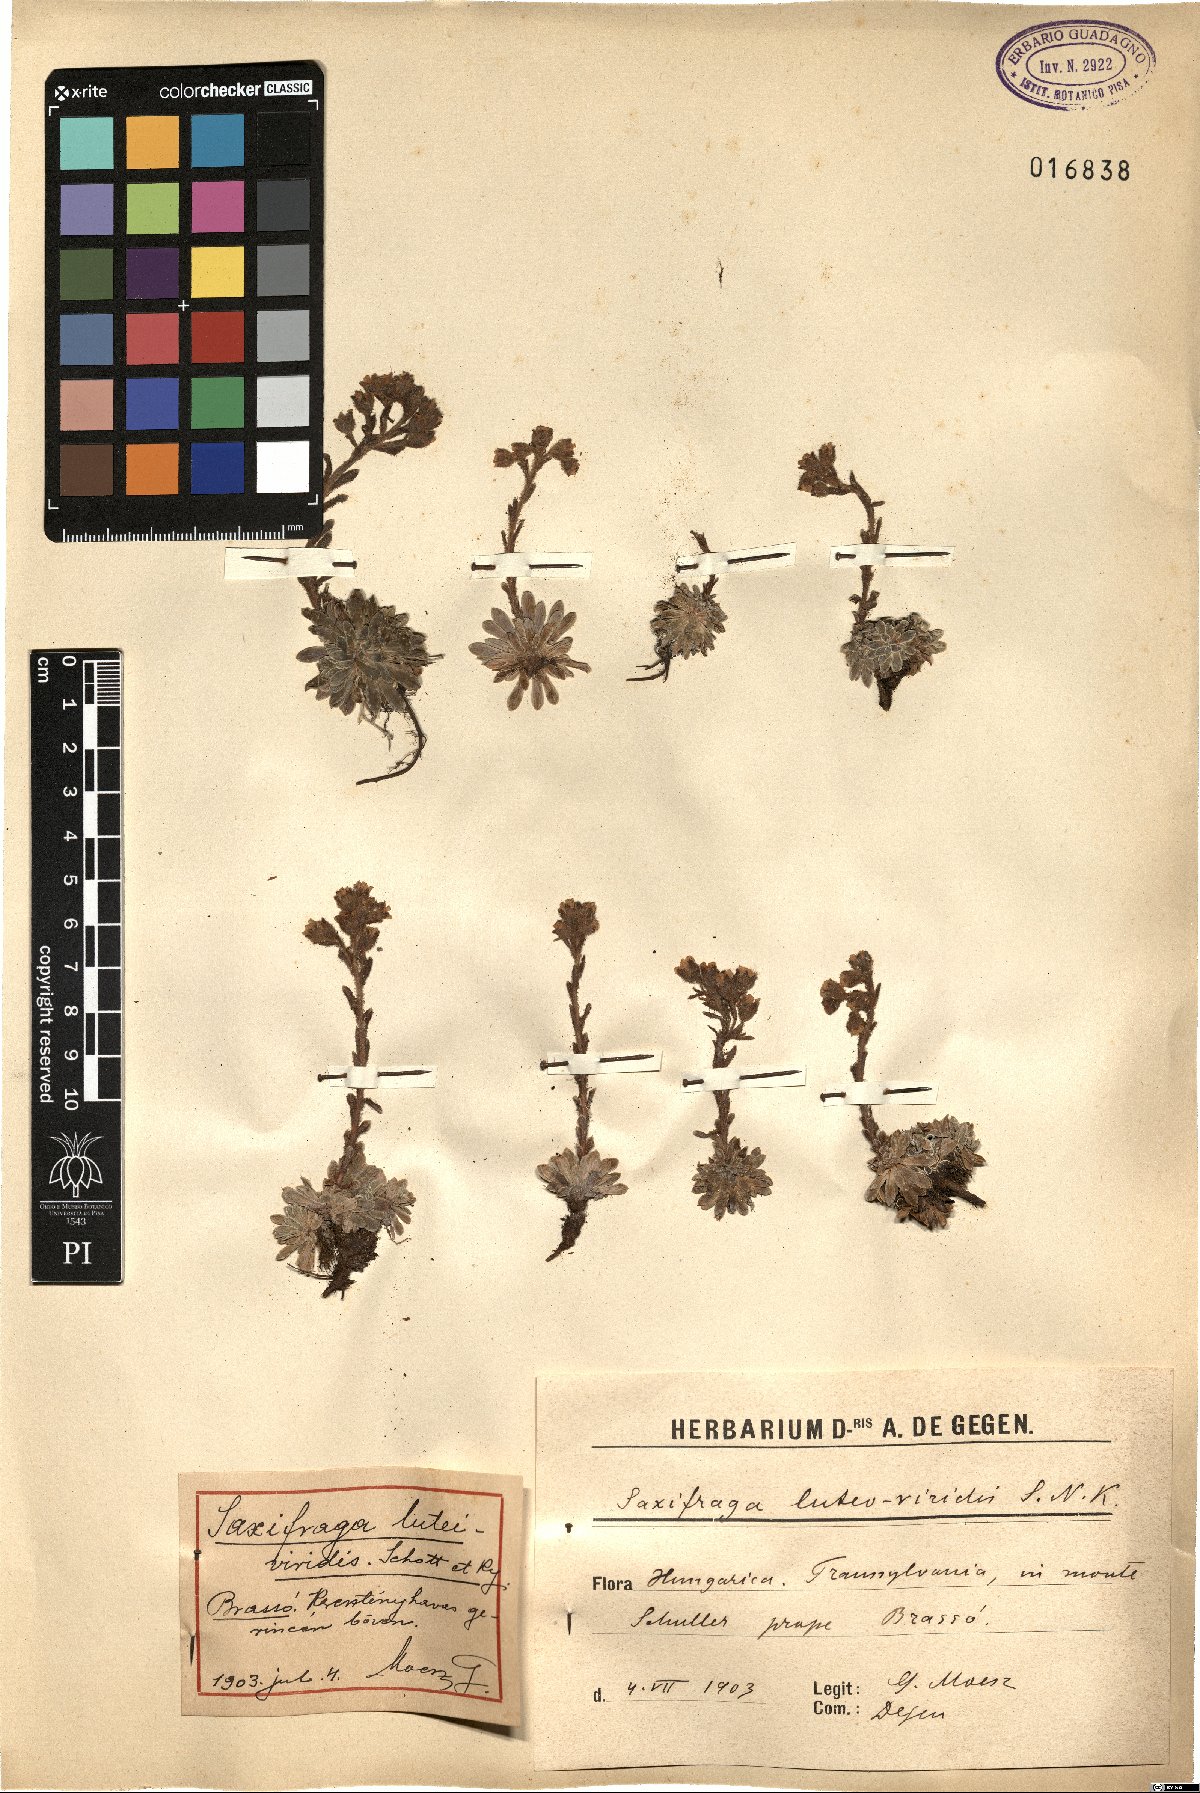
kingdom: Plantae
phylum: Tracheophyta
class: Magnoliopsida
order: Saxifragales
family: Saxifragaceae
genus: Saxifraga
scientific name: Saxifraga luteoviridis
